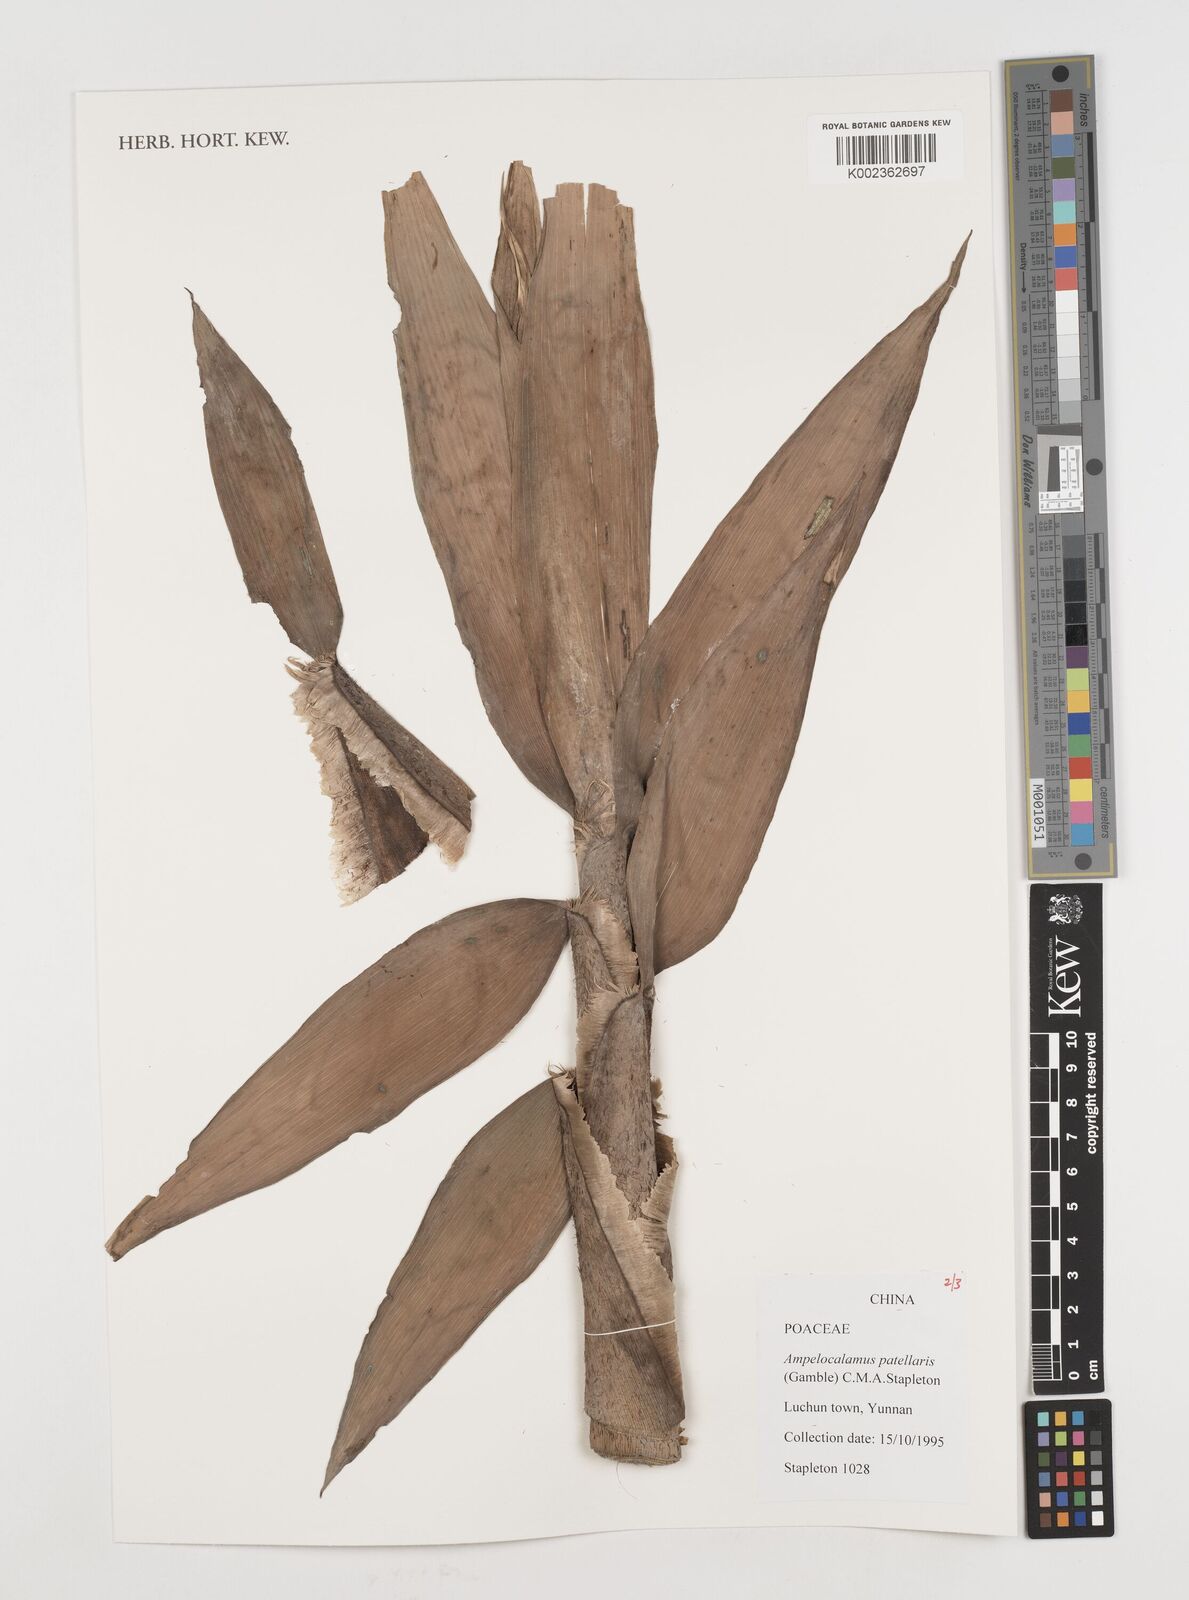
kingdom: Plantae
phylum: Tracheophyta
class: Liliopsida
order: Poales
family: Poaceae
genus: Ampelocalamus
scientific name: Ampelocalamus patellaris
